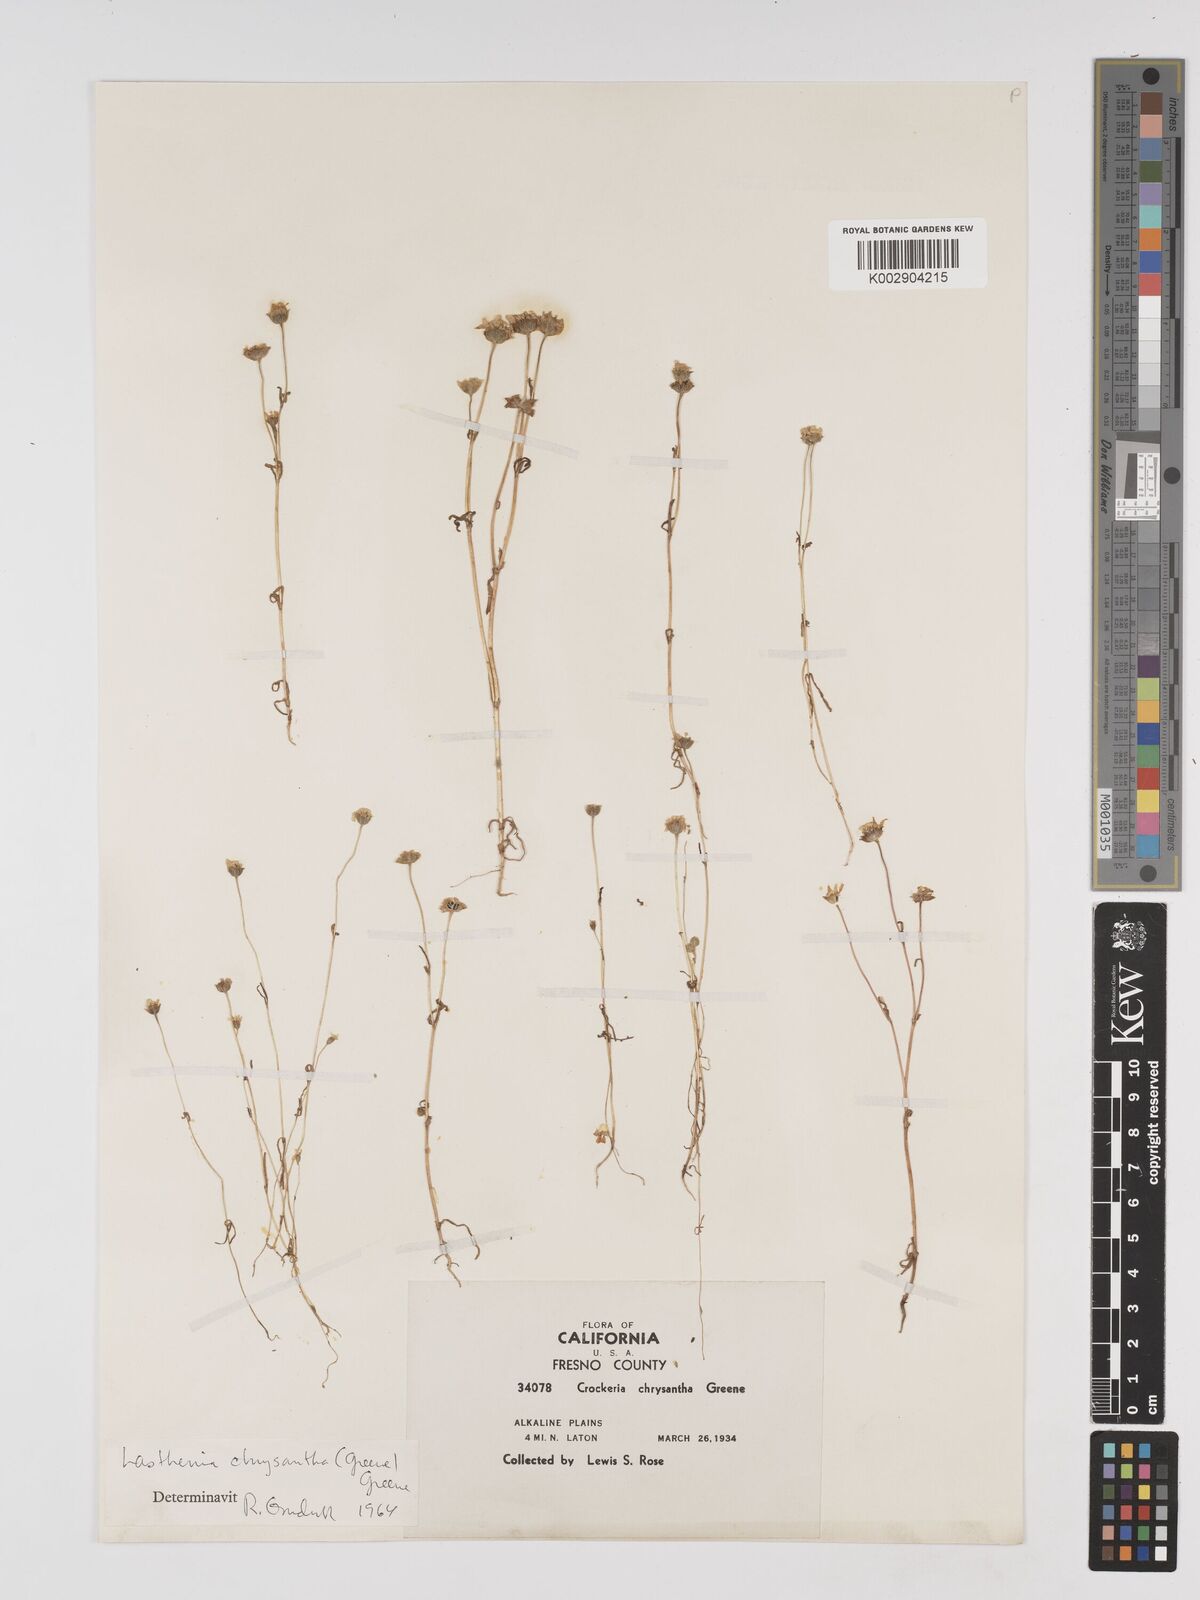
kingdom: Plantae
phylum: Tracheophyta
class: Magnoliopsida
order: Asterales
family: Asteraceae
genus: Lasthenia
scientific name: Lasthenia chrysantha
